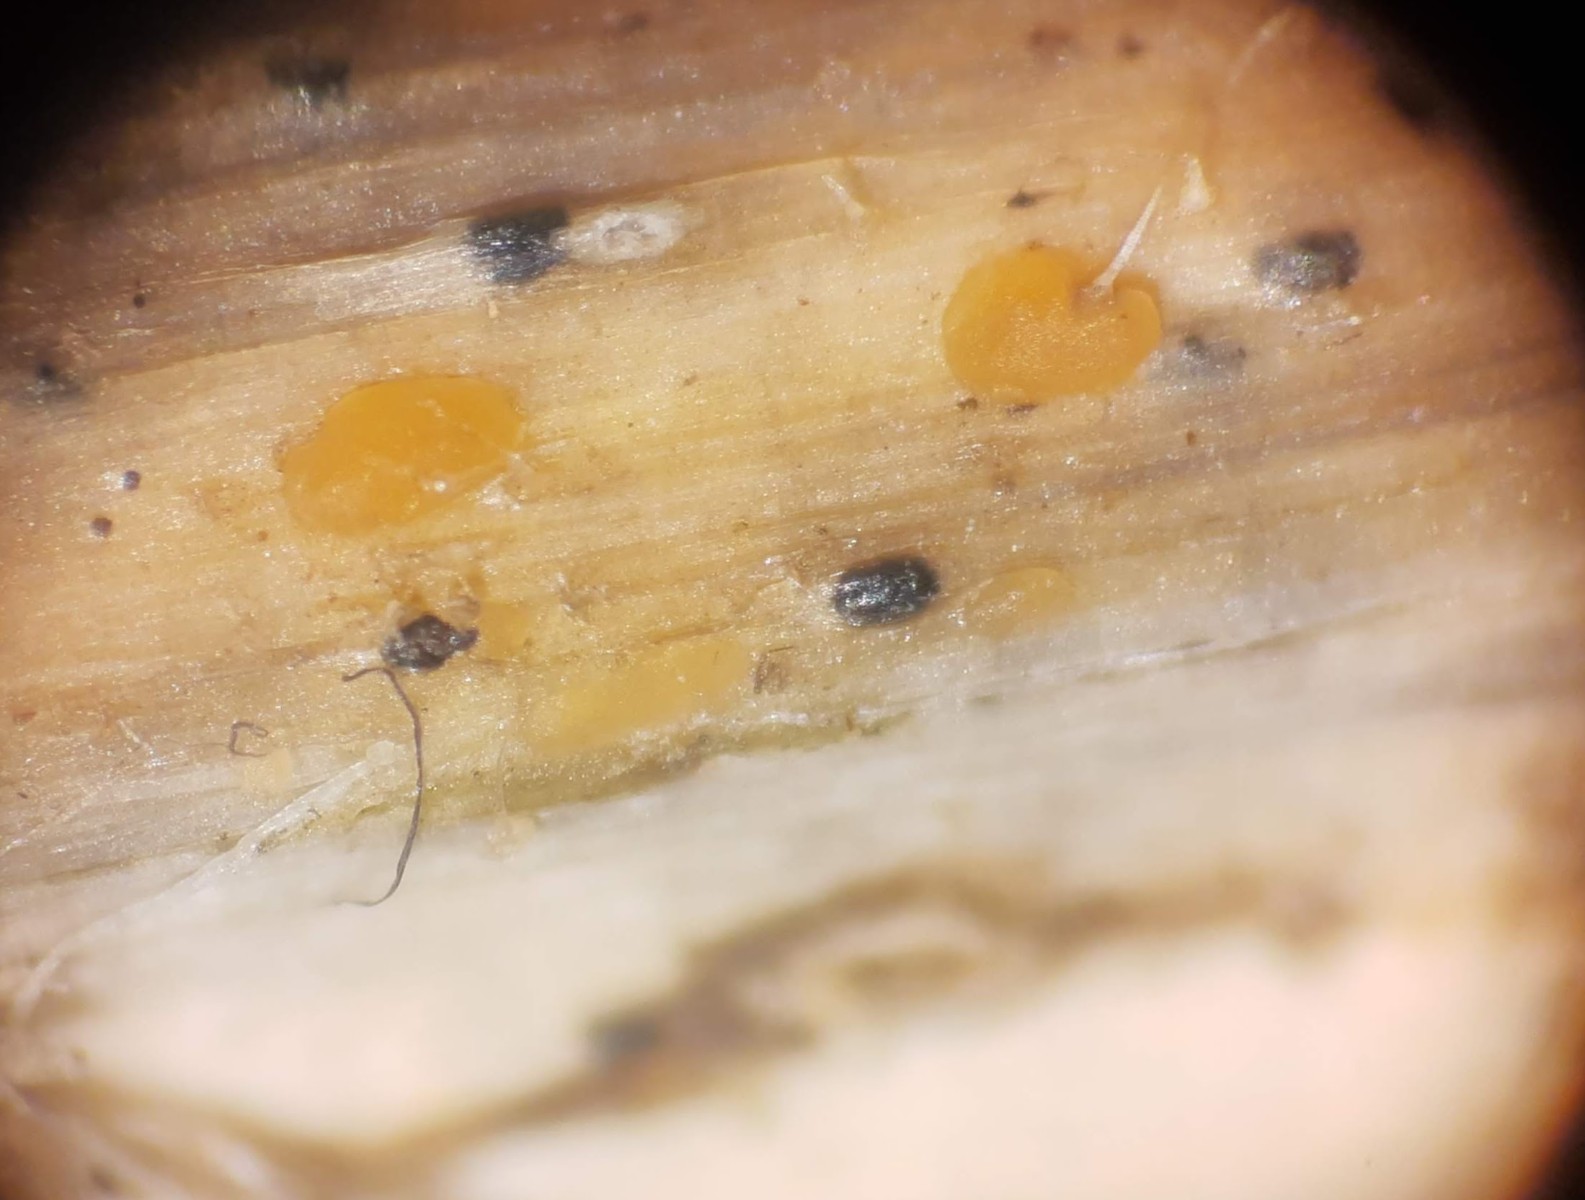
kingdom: Fungi
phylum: Ascomycota
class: Leotiomycetes
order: Helotiales
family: Calloriaceae
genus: Calloria
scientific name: Calloria urticae
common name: nælde-orangeskive
